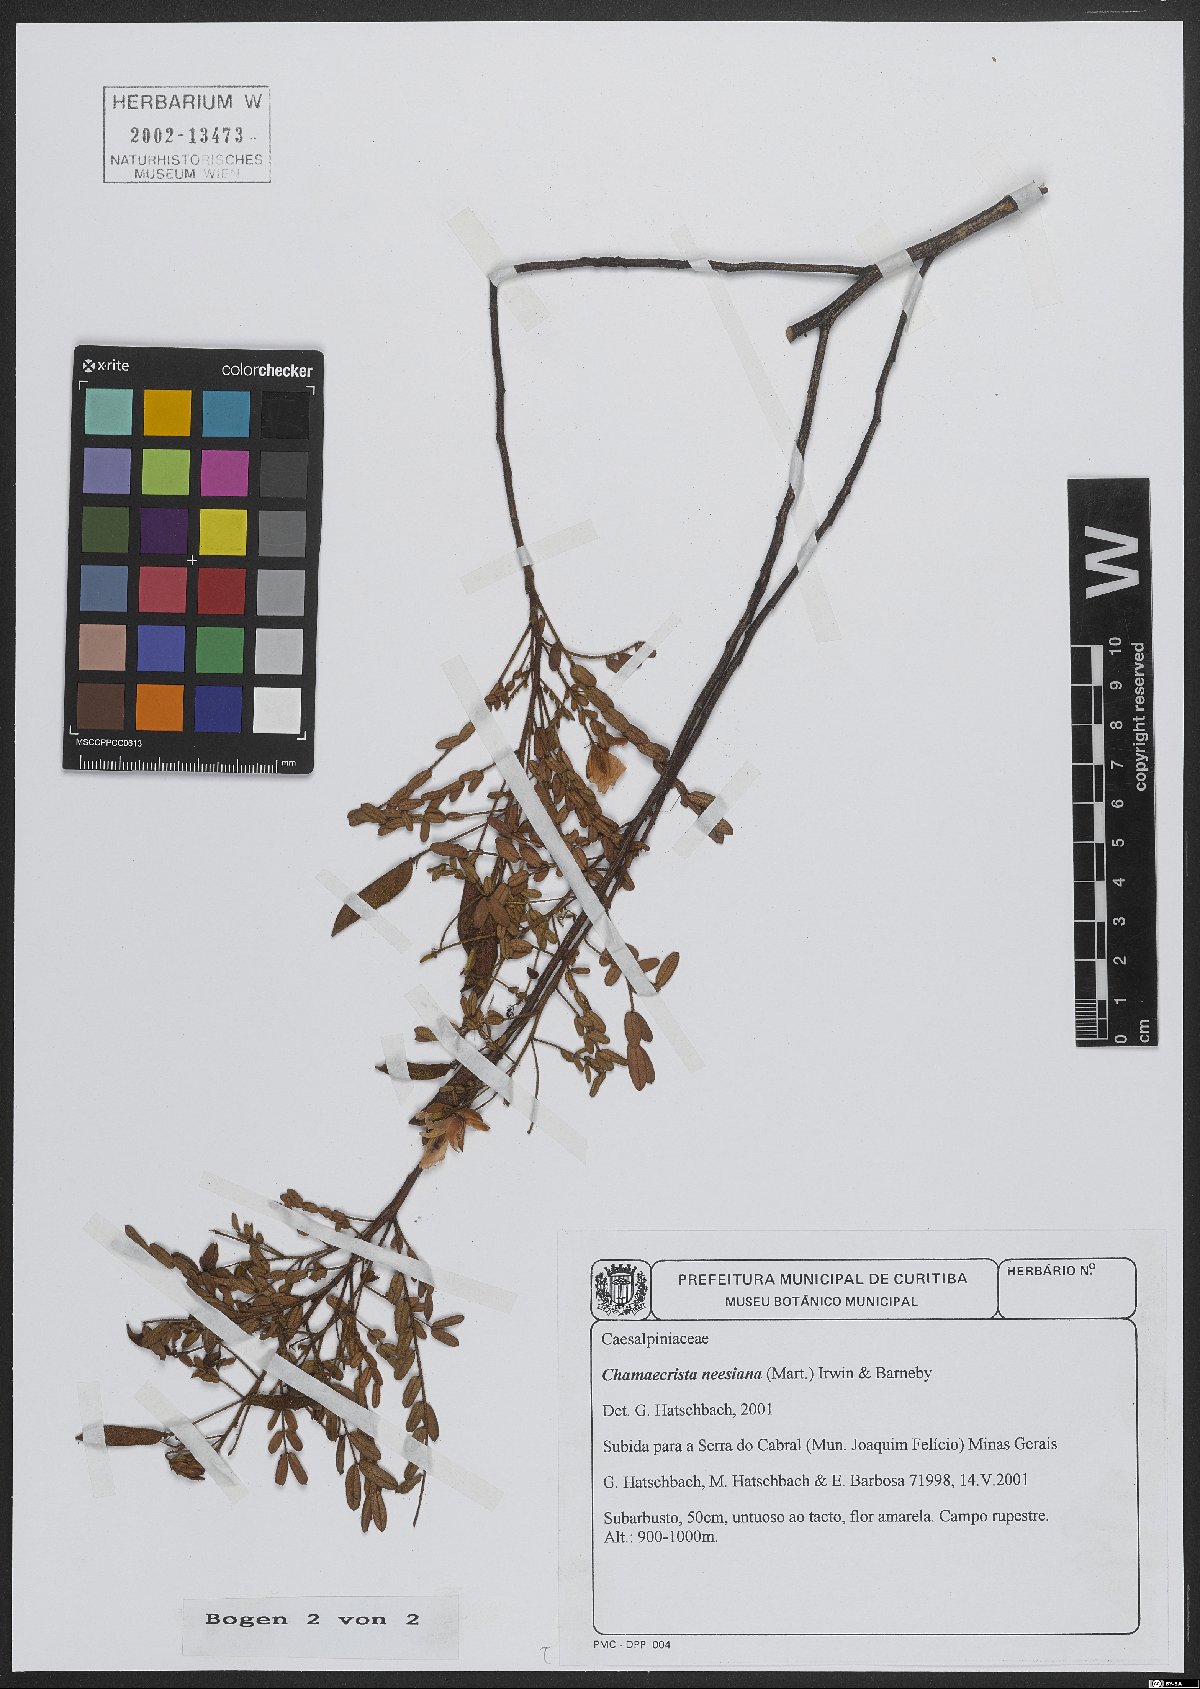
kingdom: Plantae
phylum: Tracheophyta
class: Magnoliopsida
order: Fabales
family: Fabaceae
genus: Chamaecrista
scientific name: Chamaecrista neesiana
